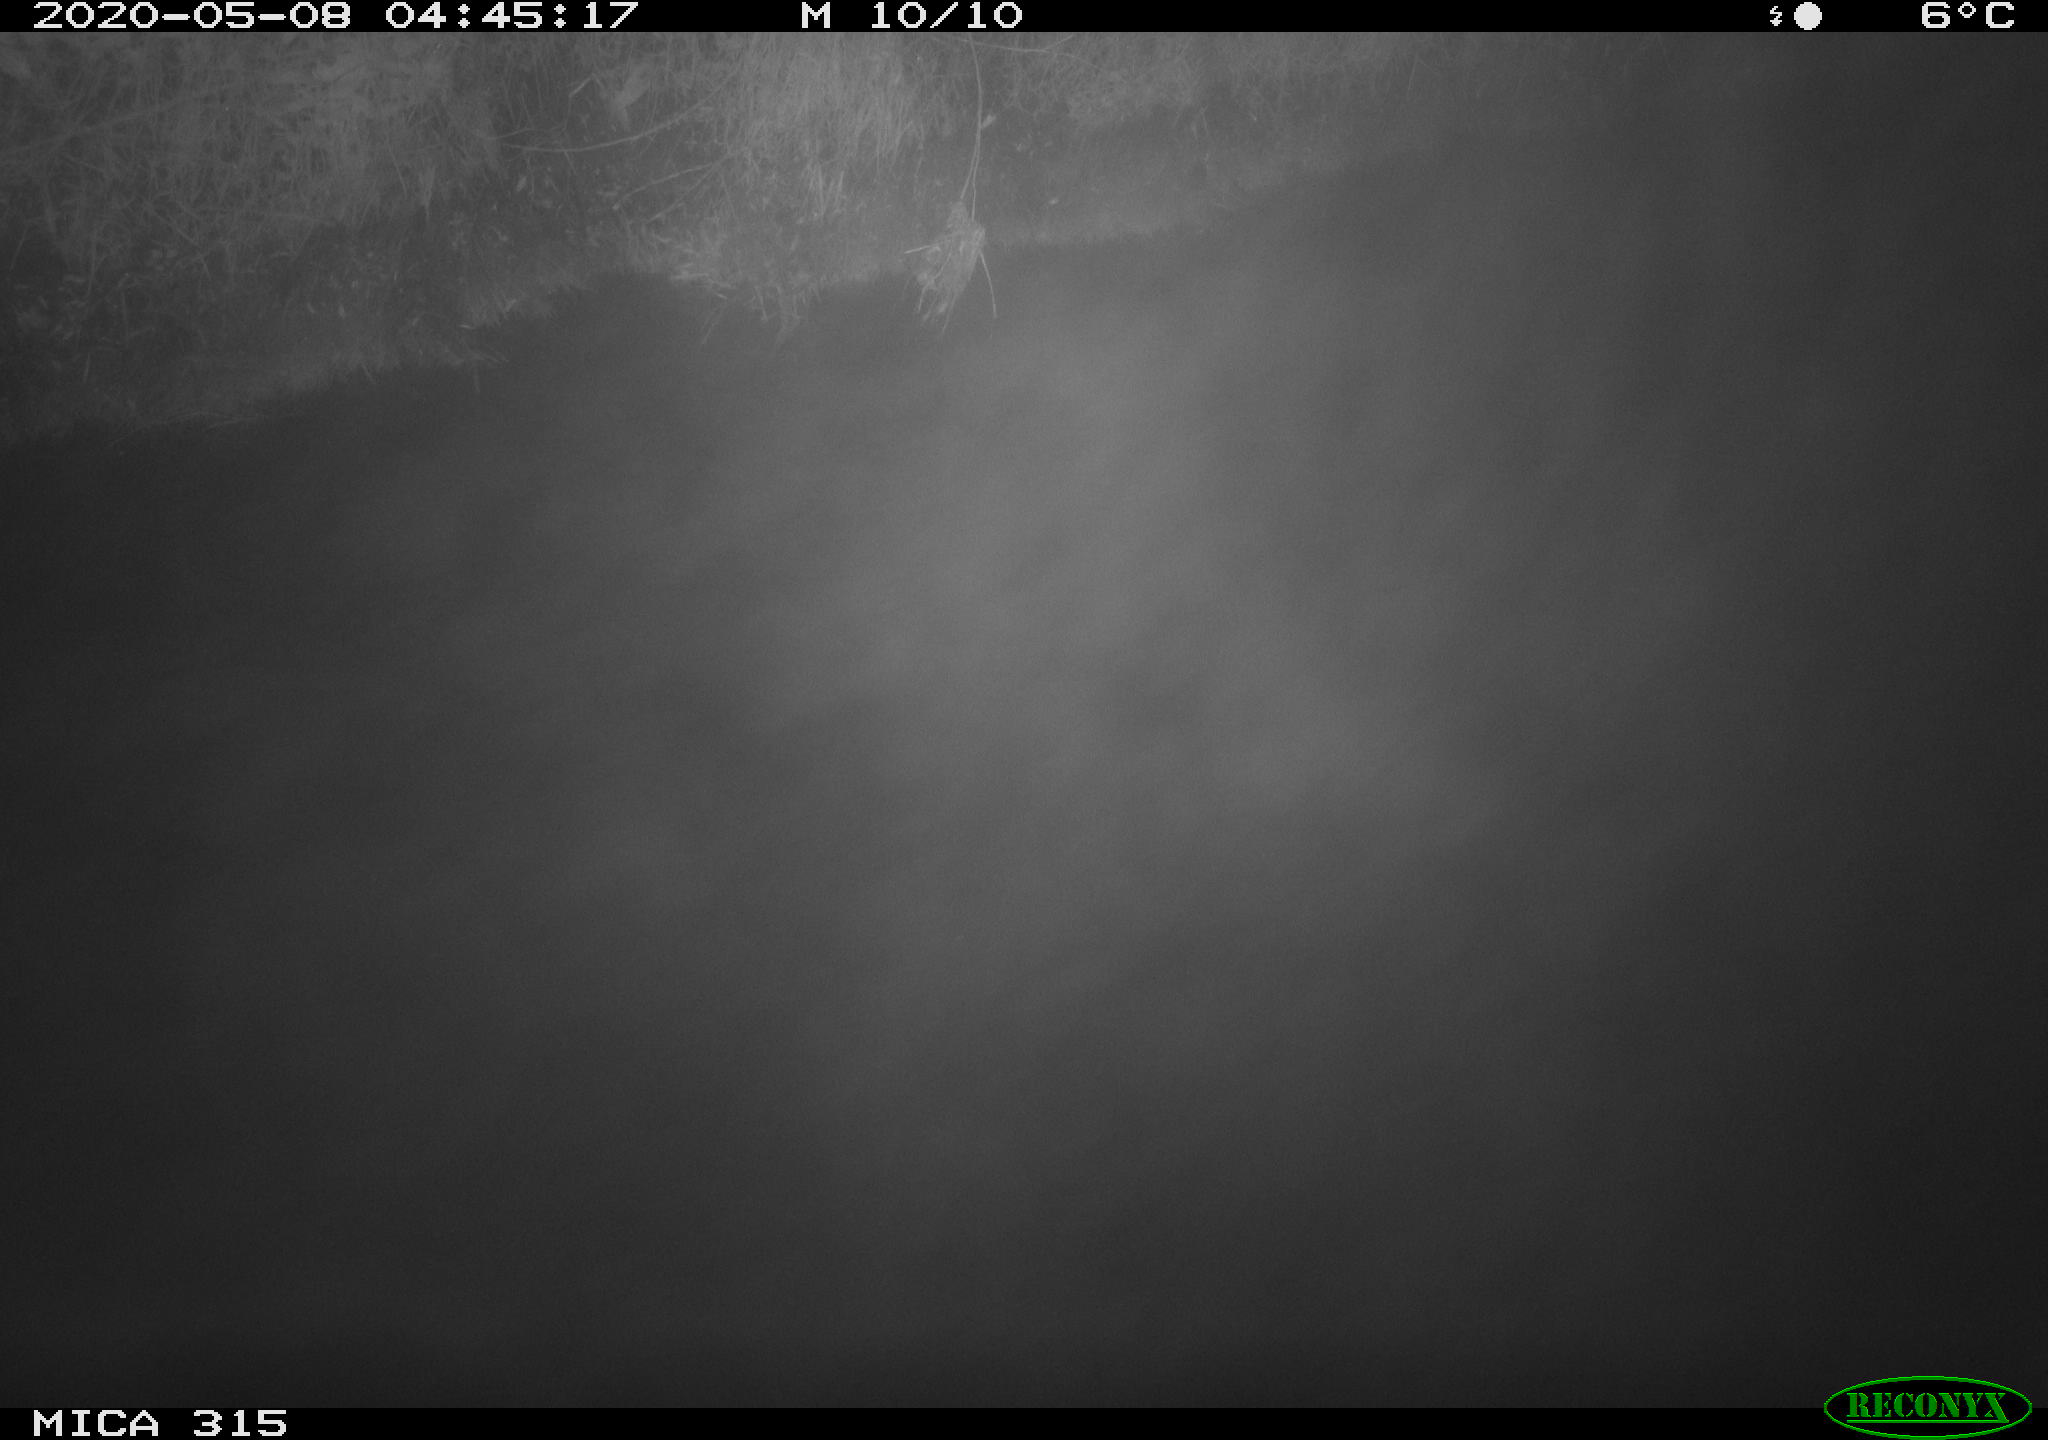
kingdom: Animalia
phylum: Chordata
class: Aves
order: Gruiformes
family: Rallidae
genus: Gallinula
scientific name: Gallinula chloropus
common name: Common moorhen
